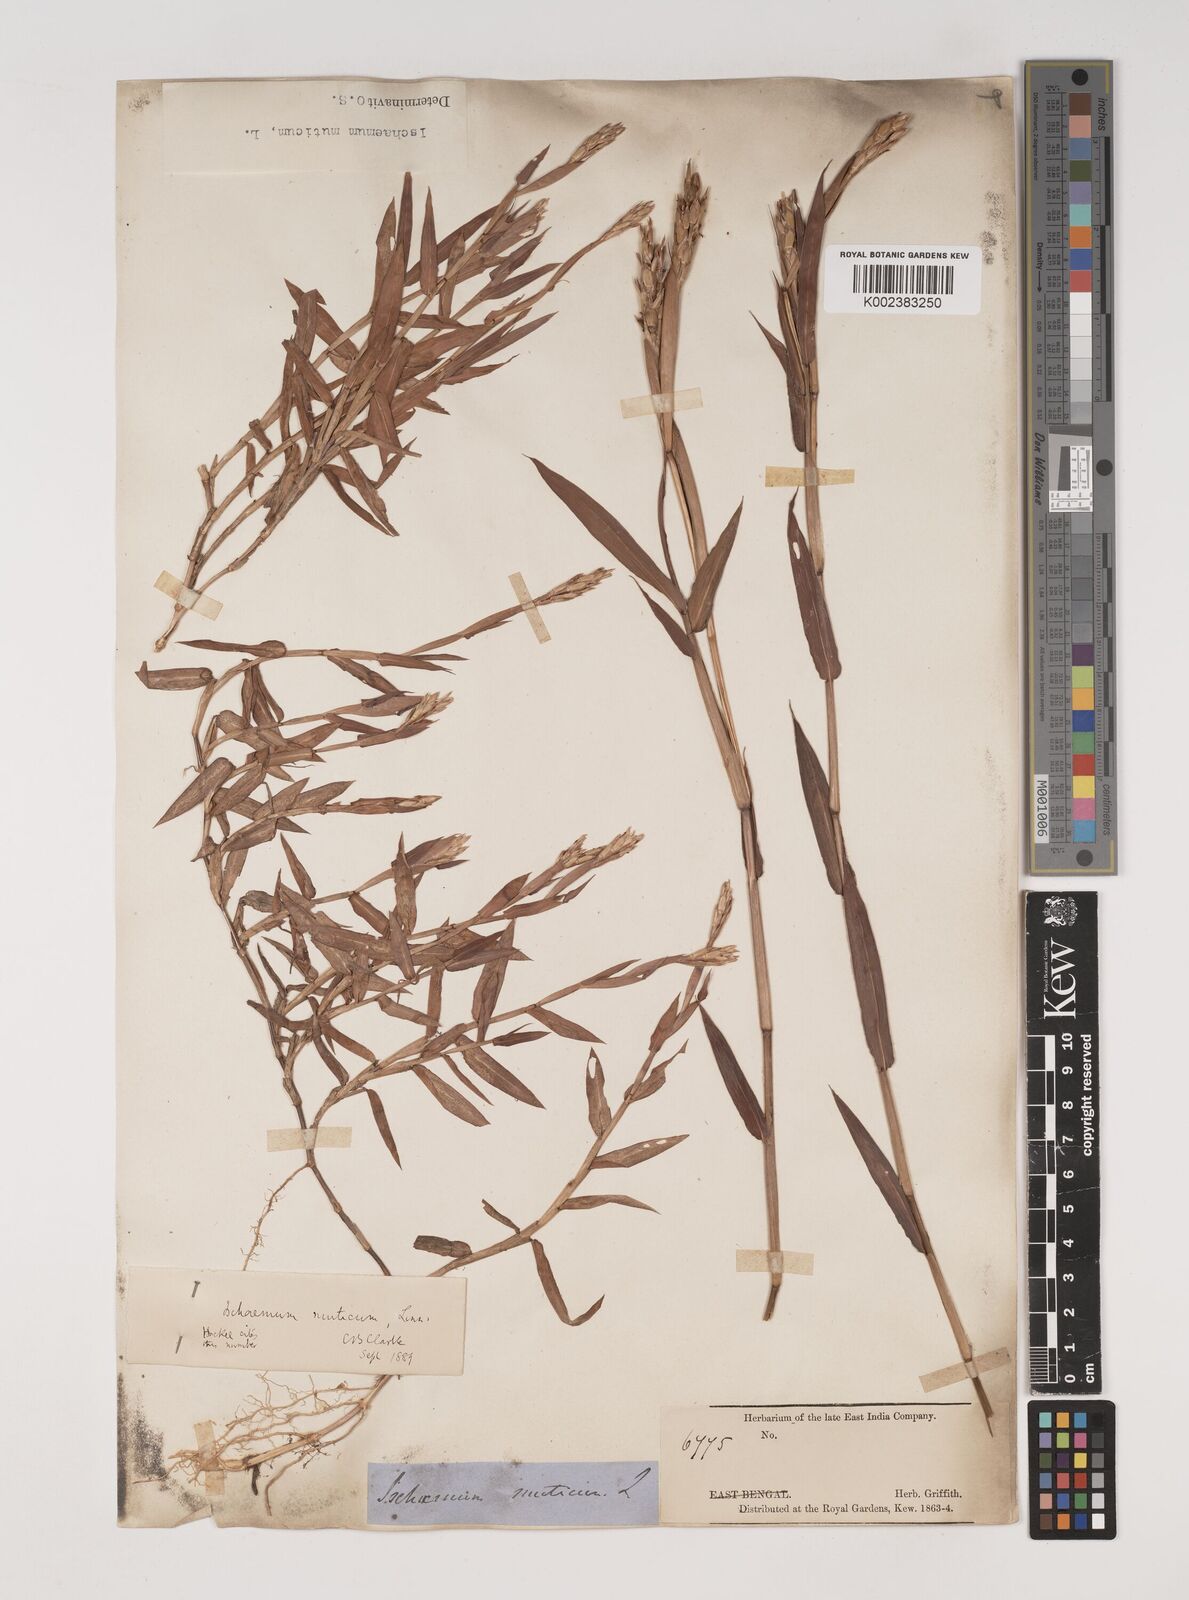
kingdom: Plantae
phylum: Tracheophyta
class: Liliopsida
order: Poales
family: Poaceae
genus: Ischaemum
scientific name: Ischaemum muticum
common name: Drought grass
